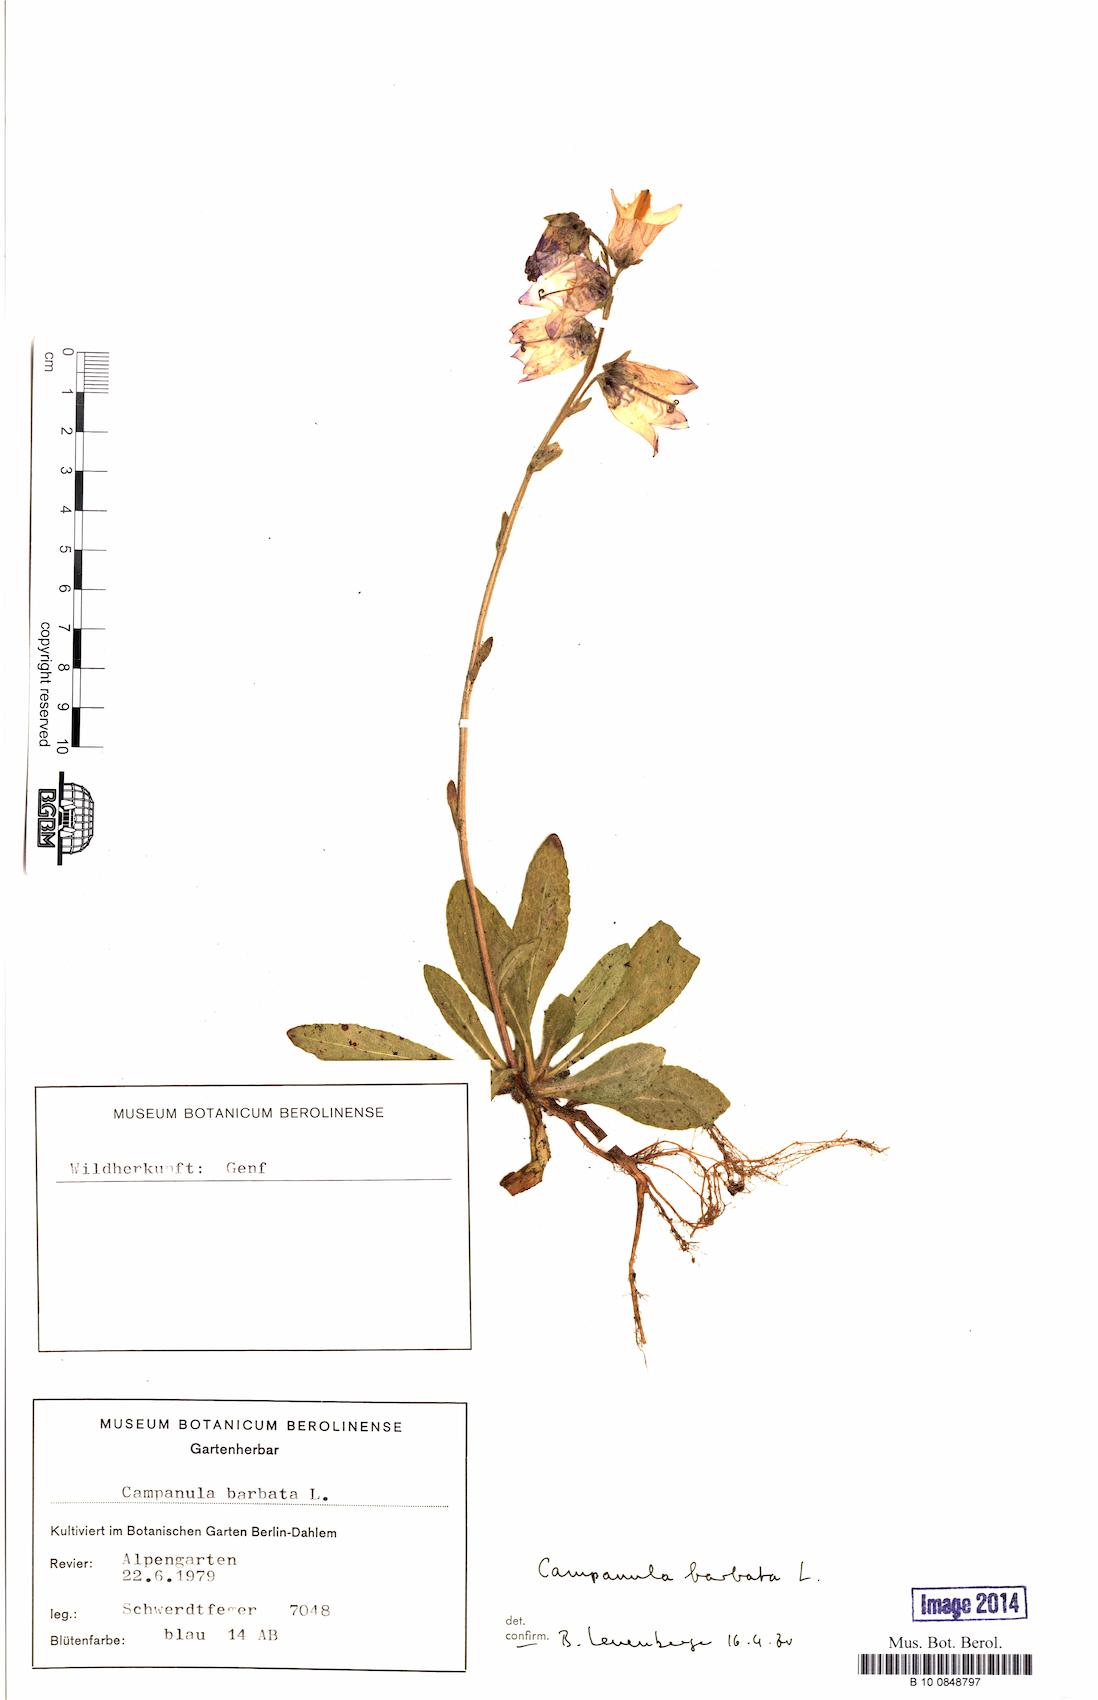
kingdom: Plantae
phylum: Tracheophyta
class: Magnoliopsida
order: Asterales
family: Campanulaceae
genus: Campanula
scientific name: Campanula barbata
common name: Bearded bellflower
